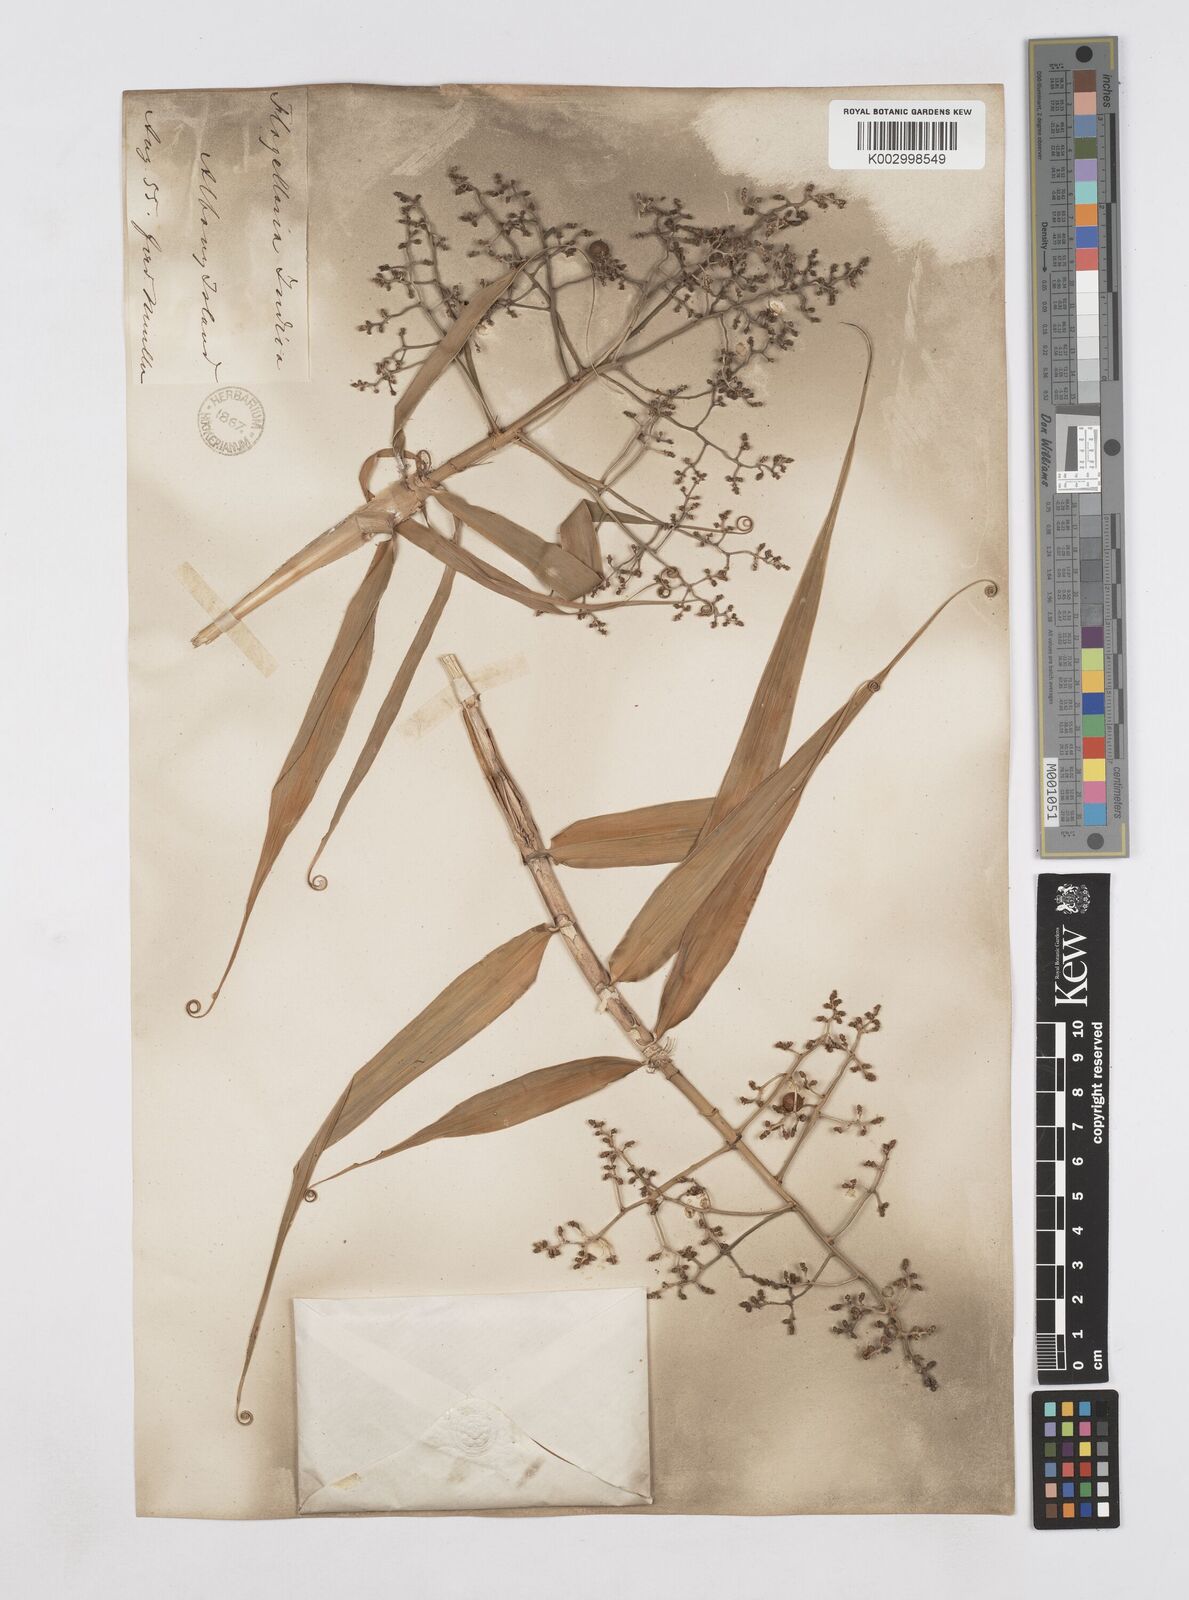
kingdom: Plantae
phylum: Tracheophyta
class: Liliopsida
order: Poales
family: Flagellariaceae
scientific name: Flagellariaceae
